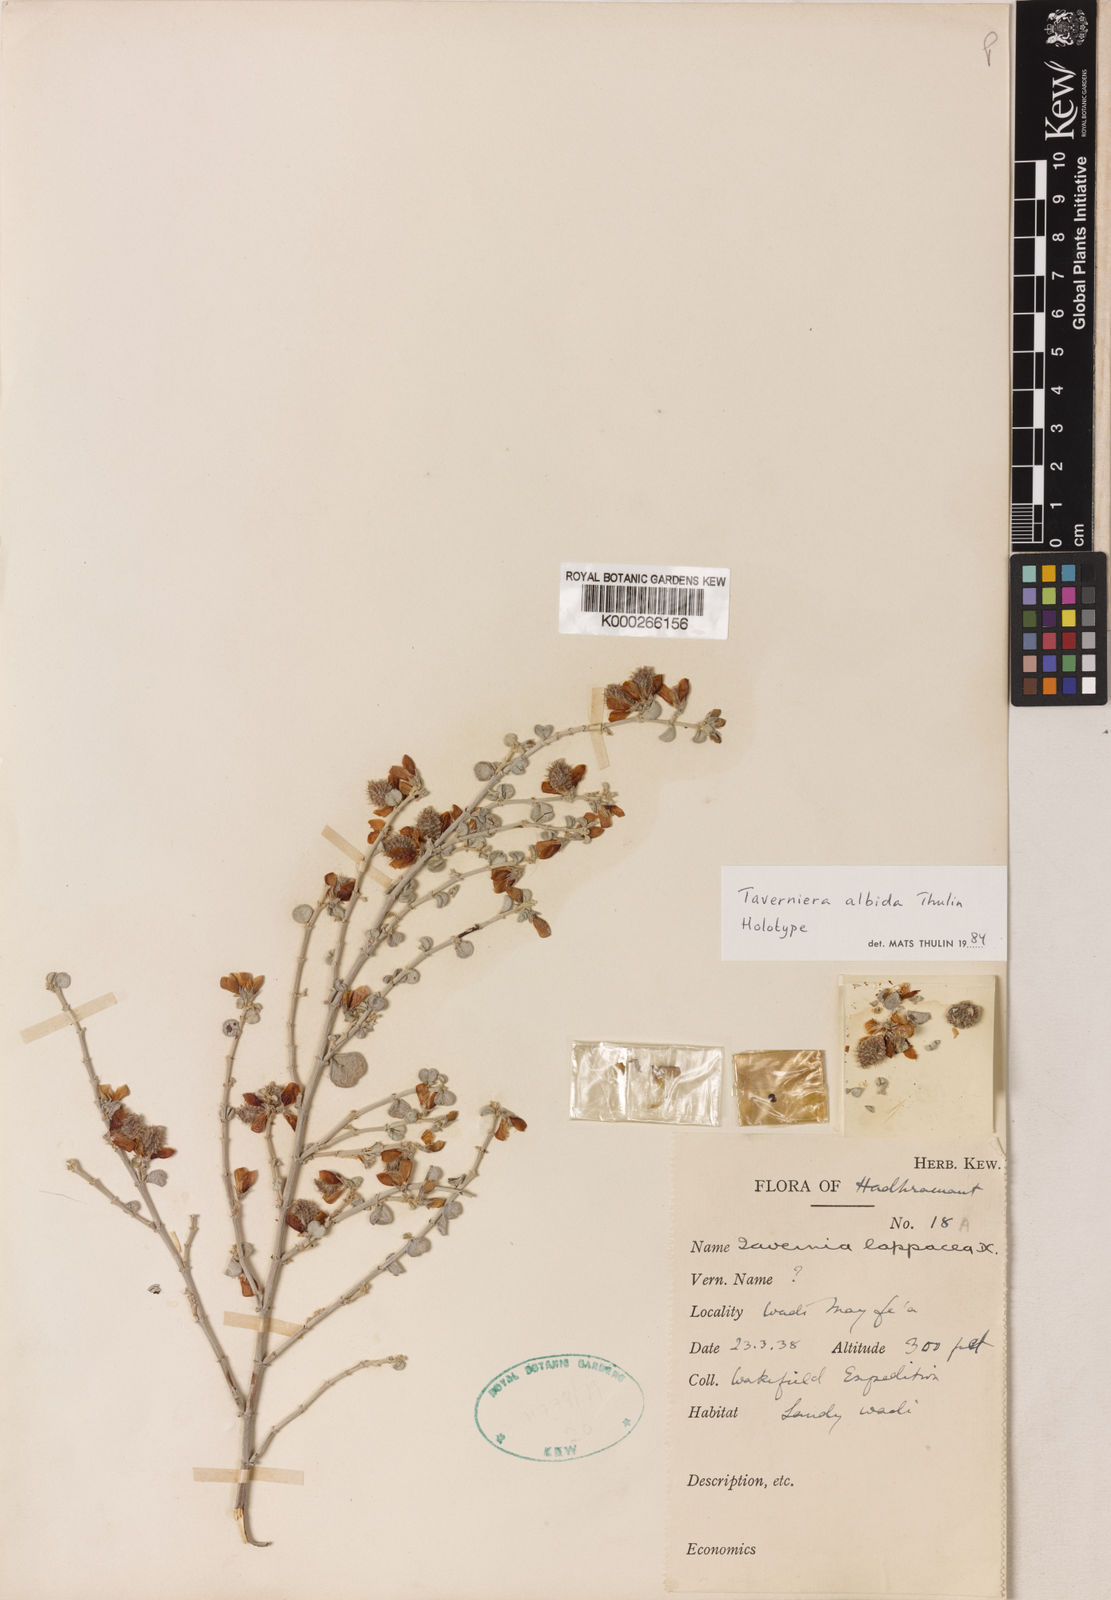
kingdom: Plantae
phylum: Tracheophyta
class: Magnoliopsida
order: Fabales
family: Fabaceae
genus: Taverniera
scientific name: Taverniera albida
